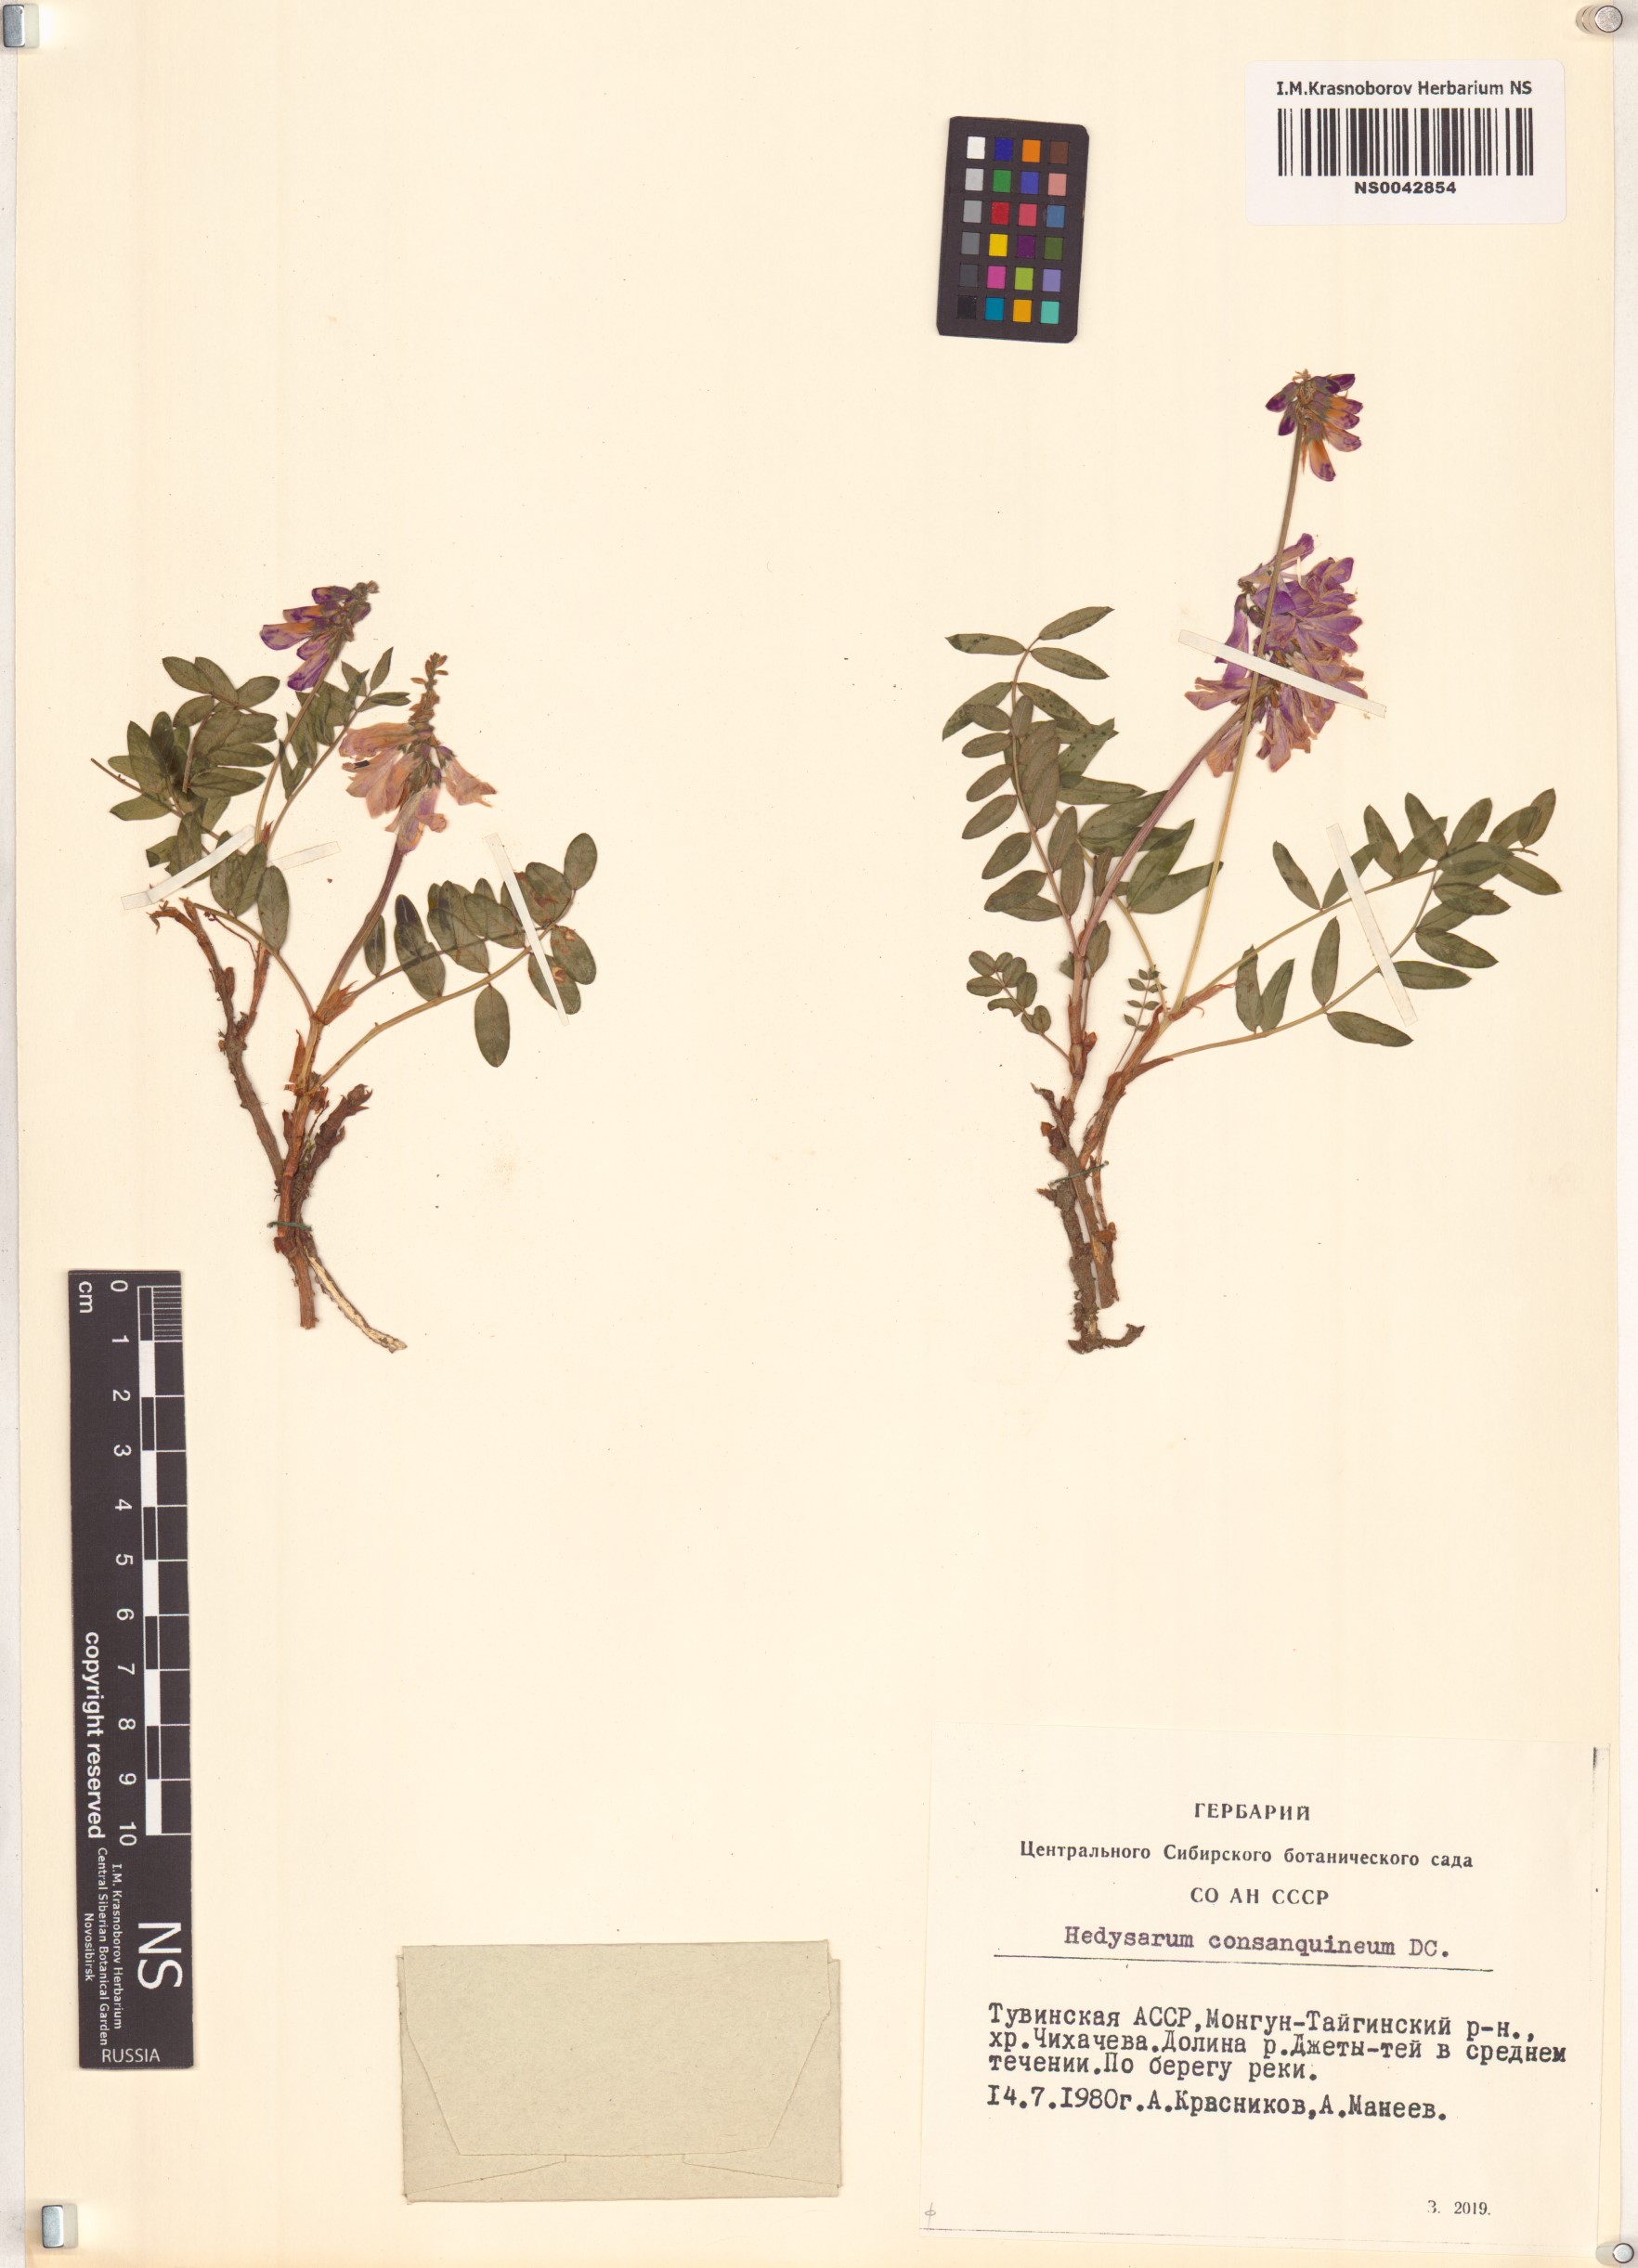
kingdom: Plantae
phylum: Tracheophyta
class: Magnoliopsida
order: Fabales
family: Fabaceae
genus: Hedysarum
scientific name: Hedysarum consanguineum
